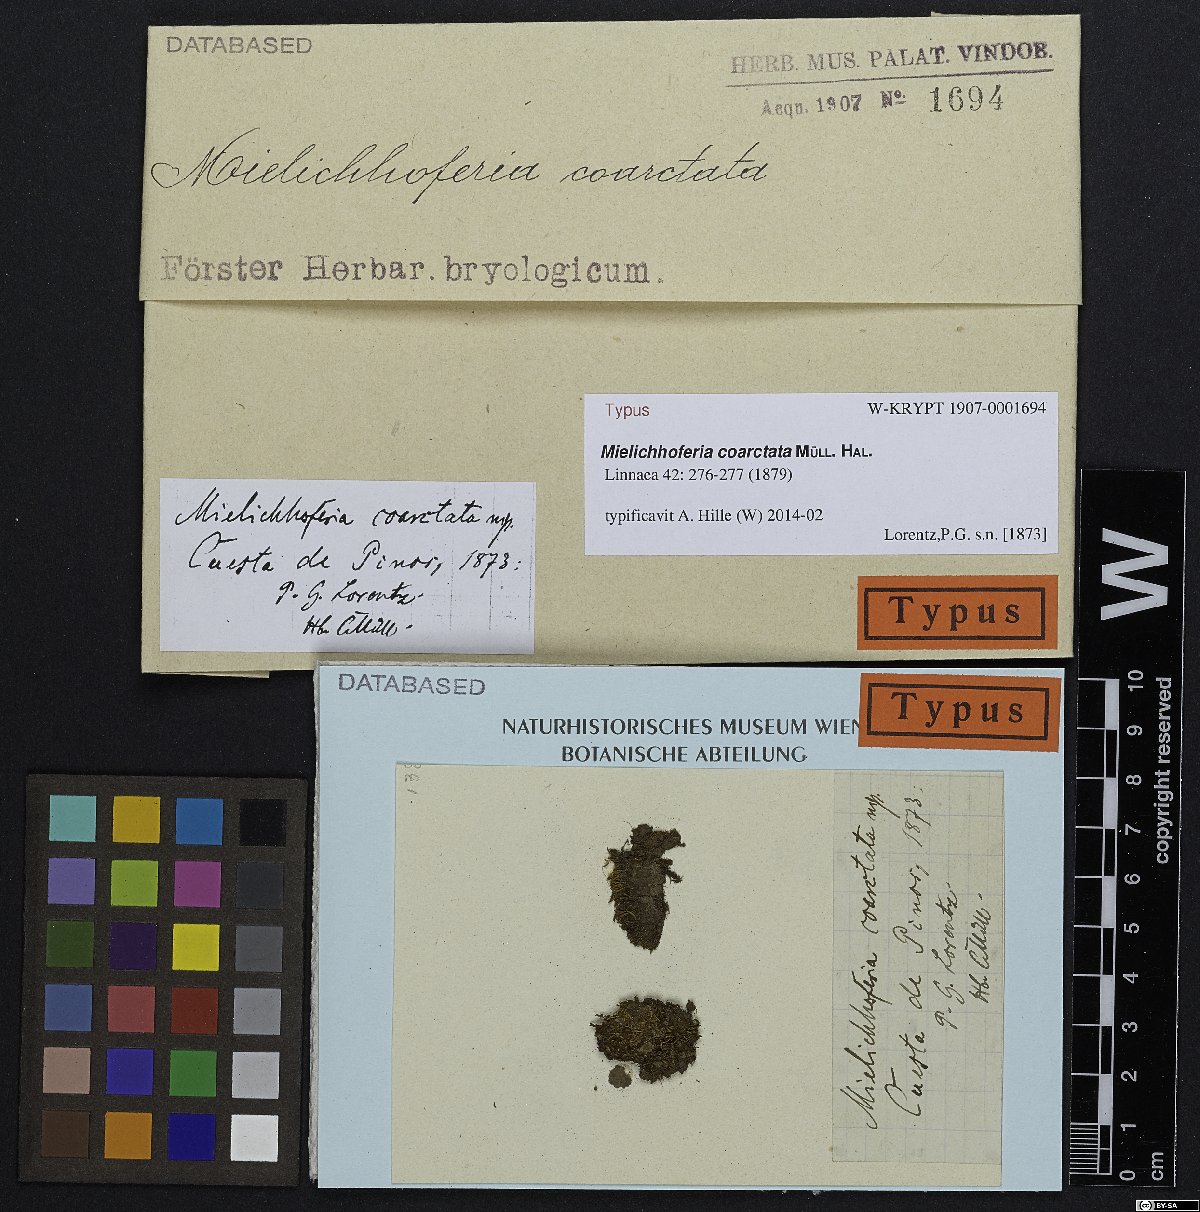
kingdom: Plantae
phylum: Bryophyta
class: Bryopsida
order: Bryales
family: Mniaceae
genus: Mielichhoferia
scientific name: Mielichhoferia coarctata
